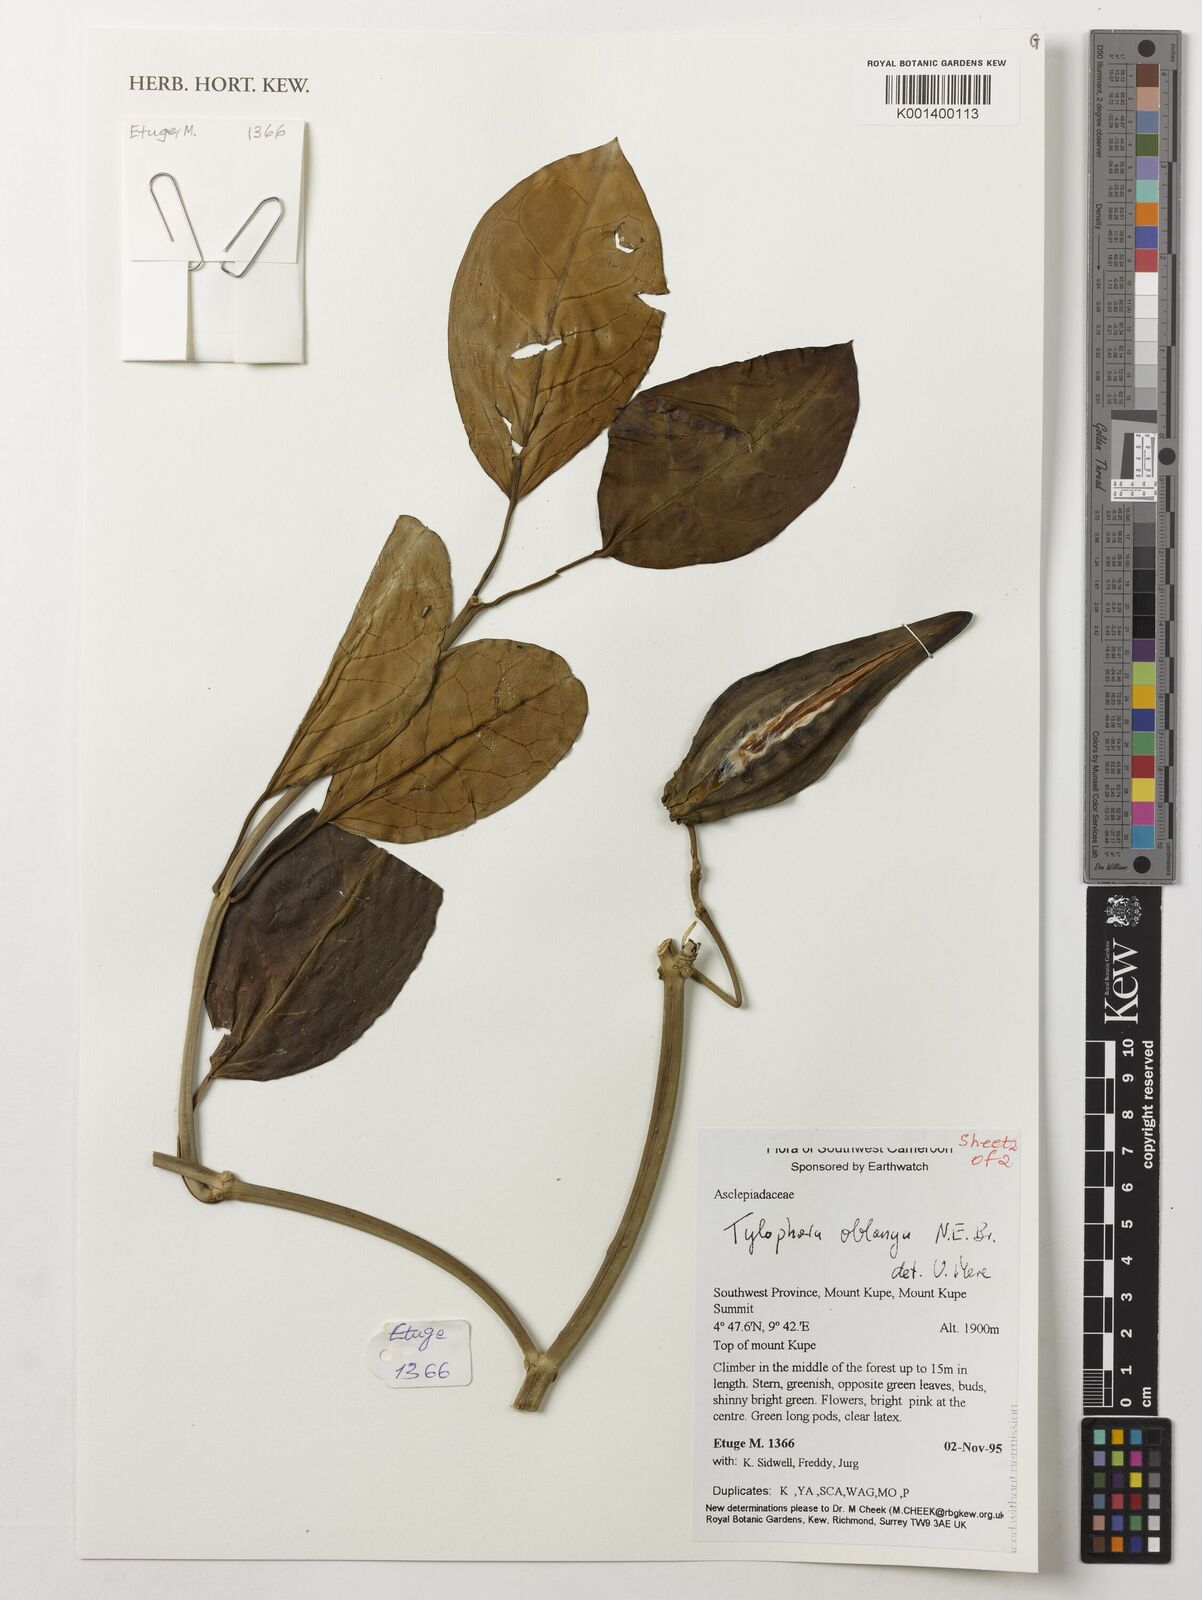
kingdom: Plantae
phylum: Tracheophyta
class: Magnoliopsida
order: Gentianales
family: Apocynaceae
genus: Vincetoxicum
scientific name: Vincetoxicum oblongum
